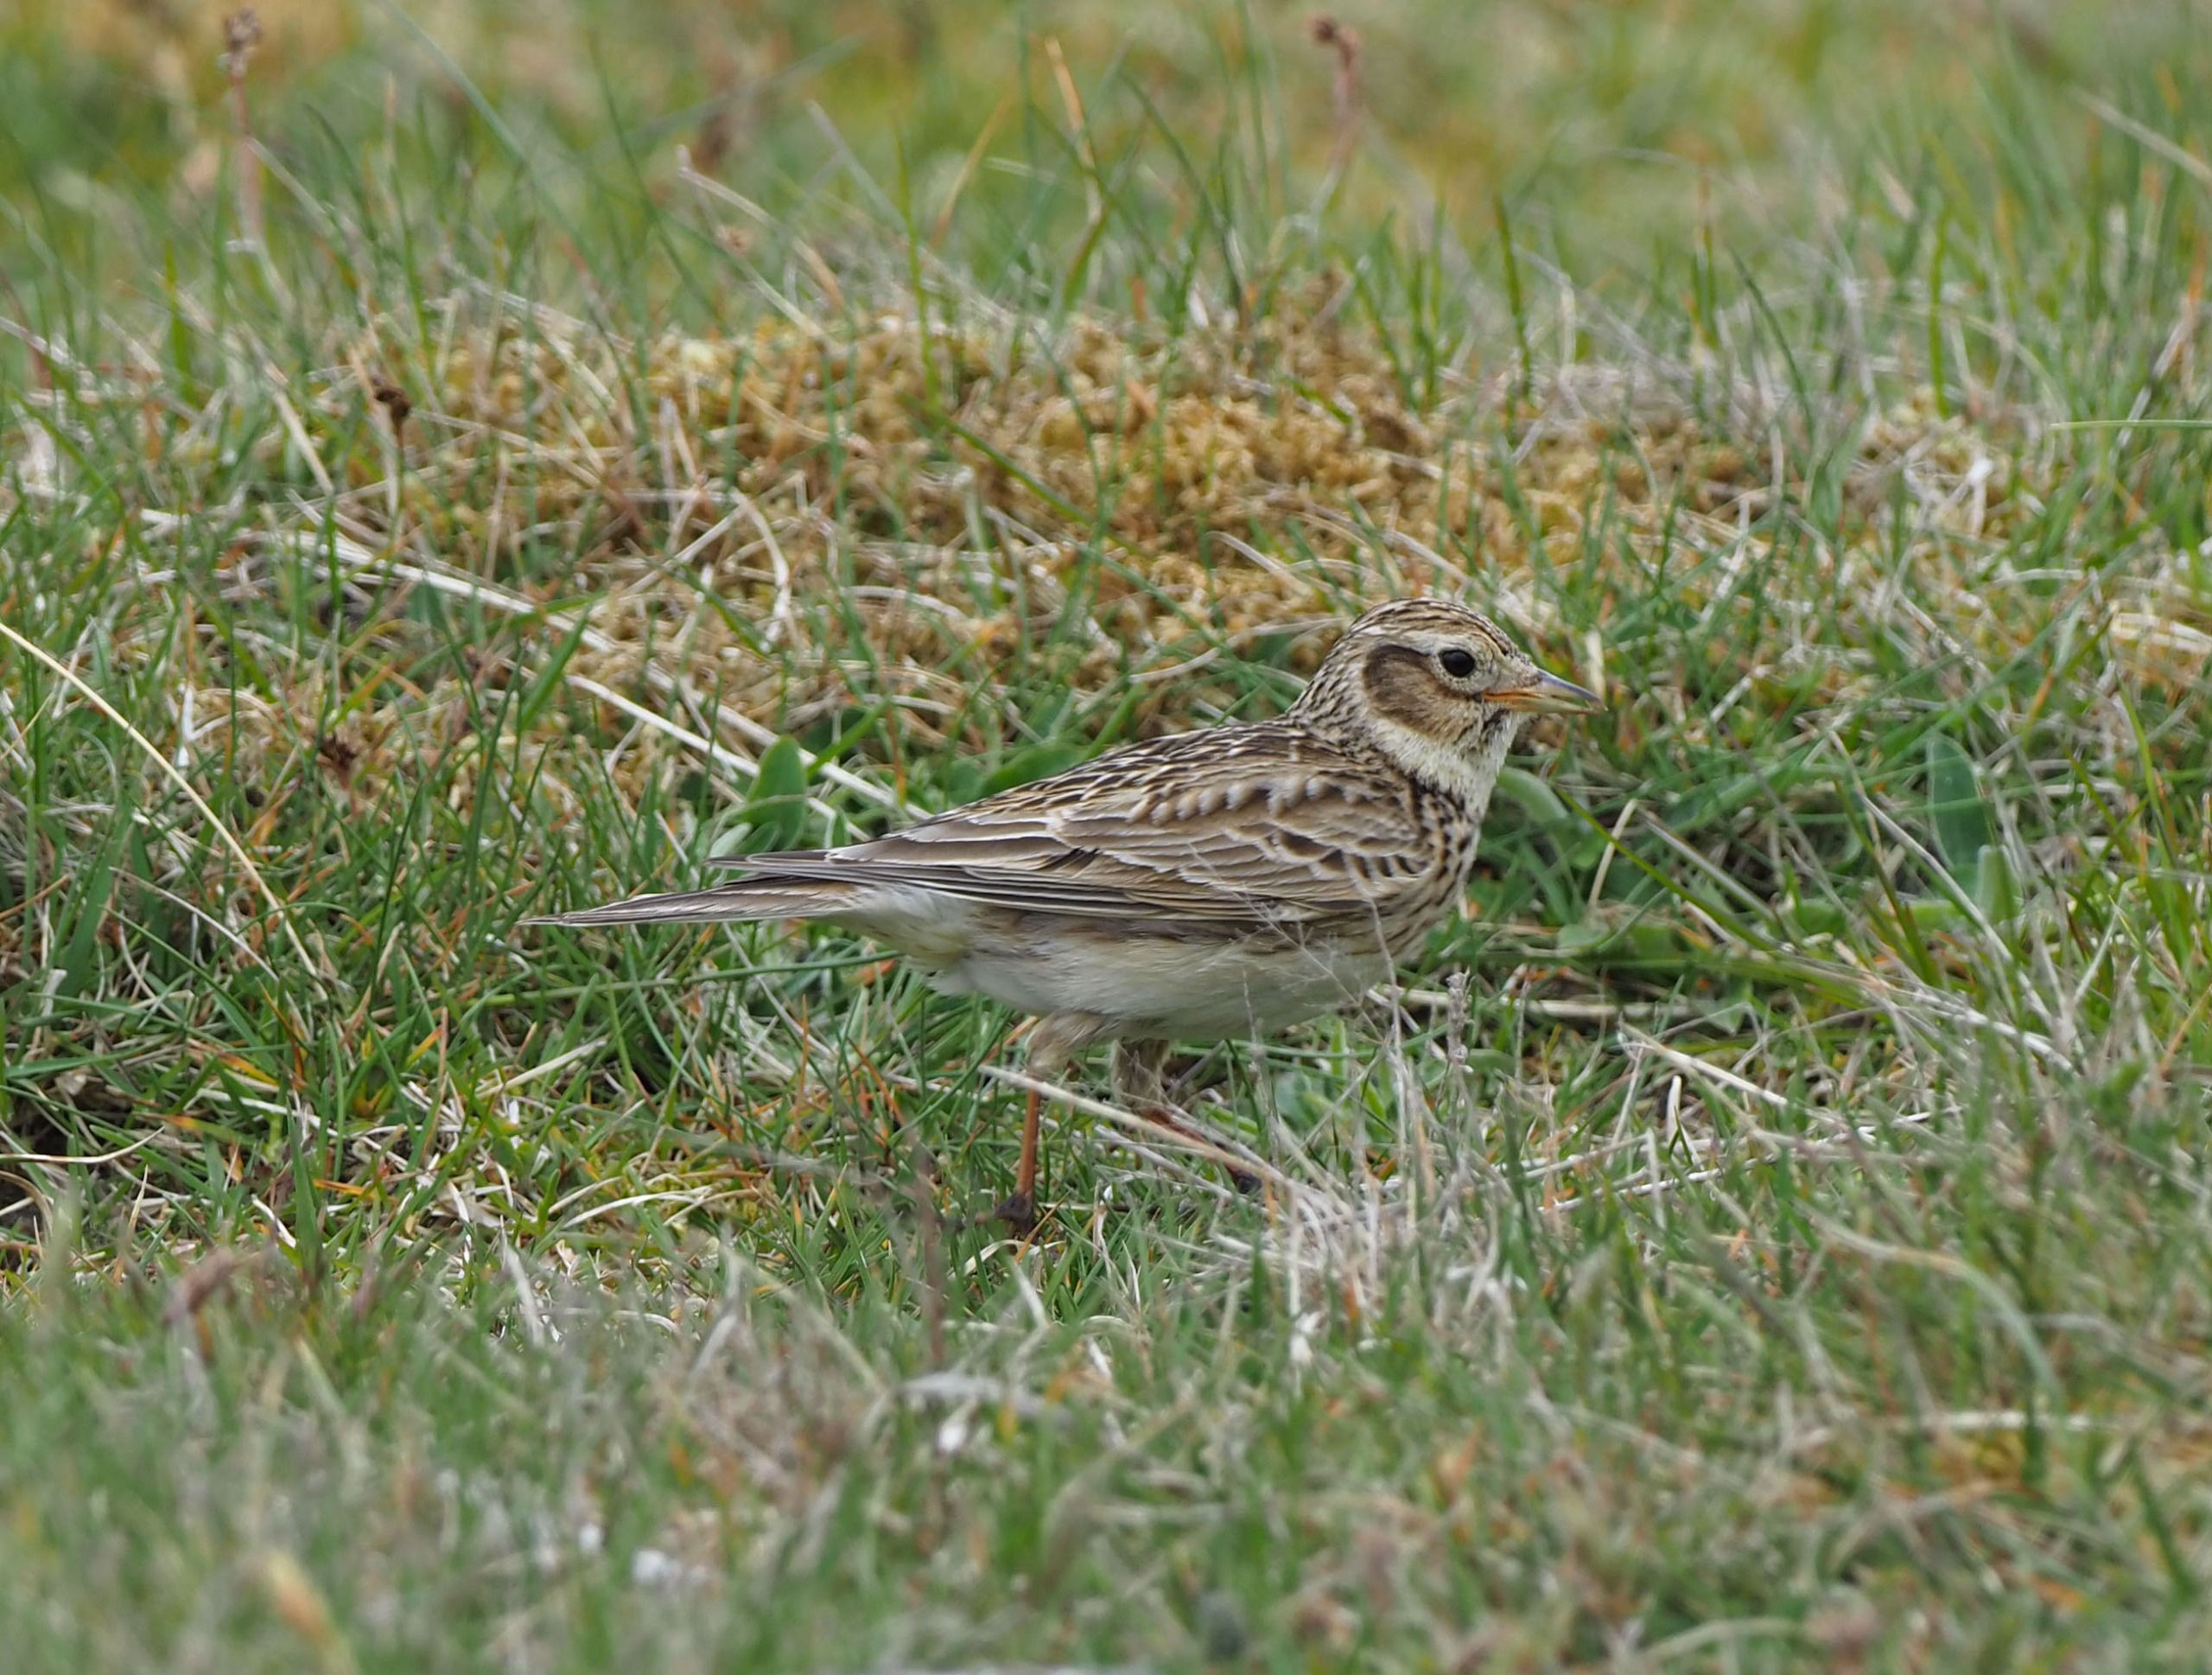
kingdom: Animalia
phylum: Chordata
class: Aves
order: Passeriformes
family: Alaudidae
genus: Alauda
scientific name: Alauda arvensis
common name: Sanglærke
